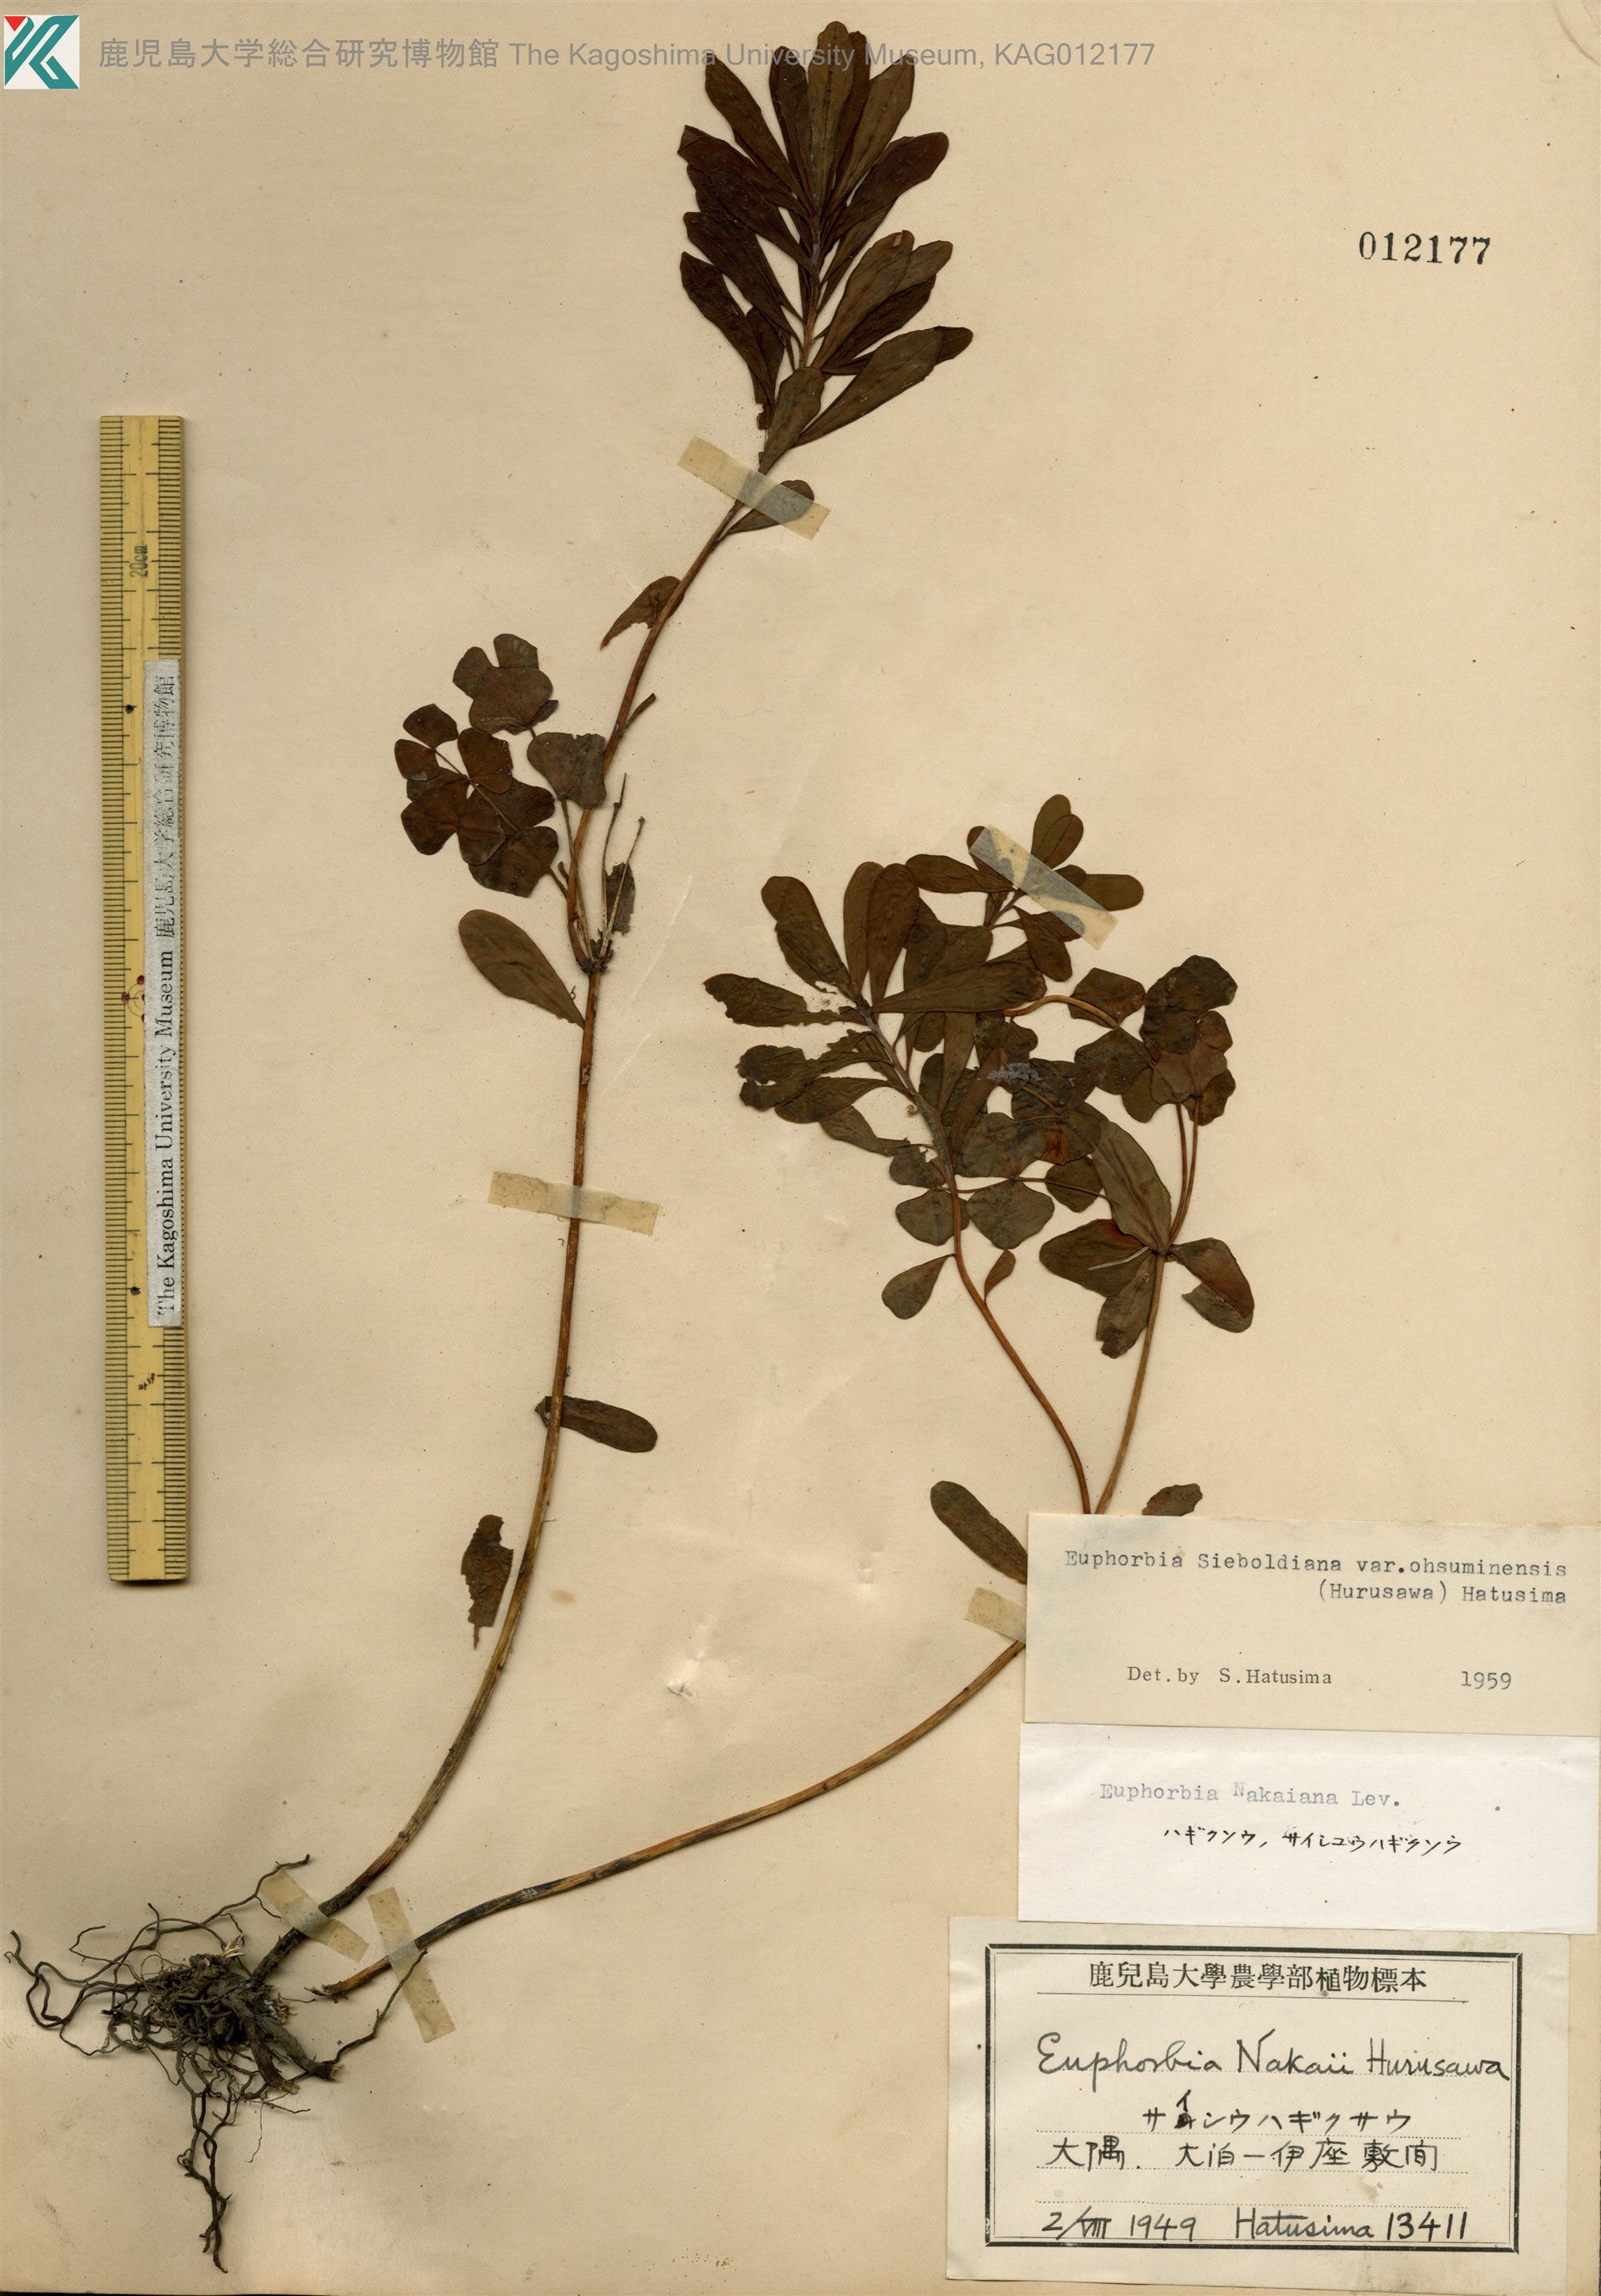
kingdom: Plantae
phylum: Tracheophyta
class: Magnoliopsida
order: Malpighiales
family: Euphorbiaceae
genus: Euphorbia
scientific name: Euphorbia sieboldiana
